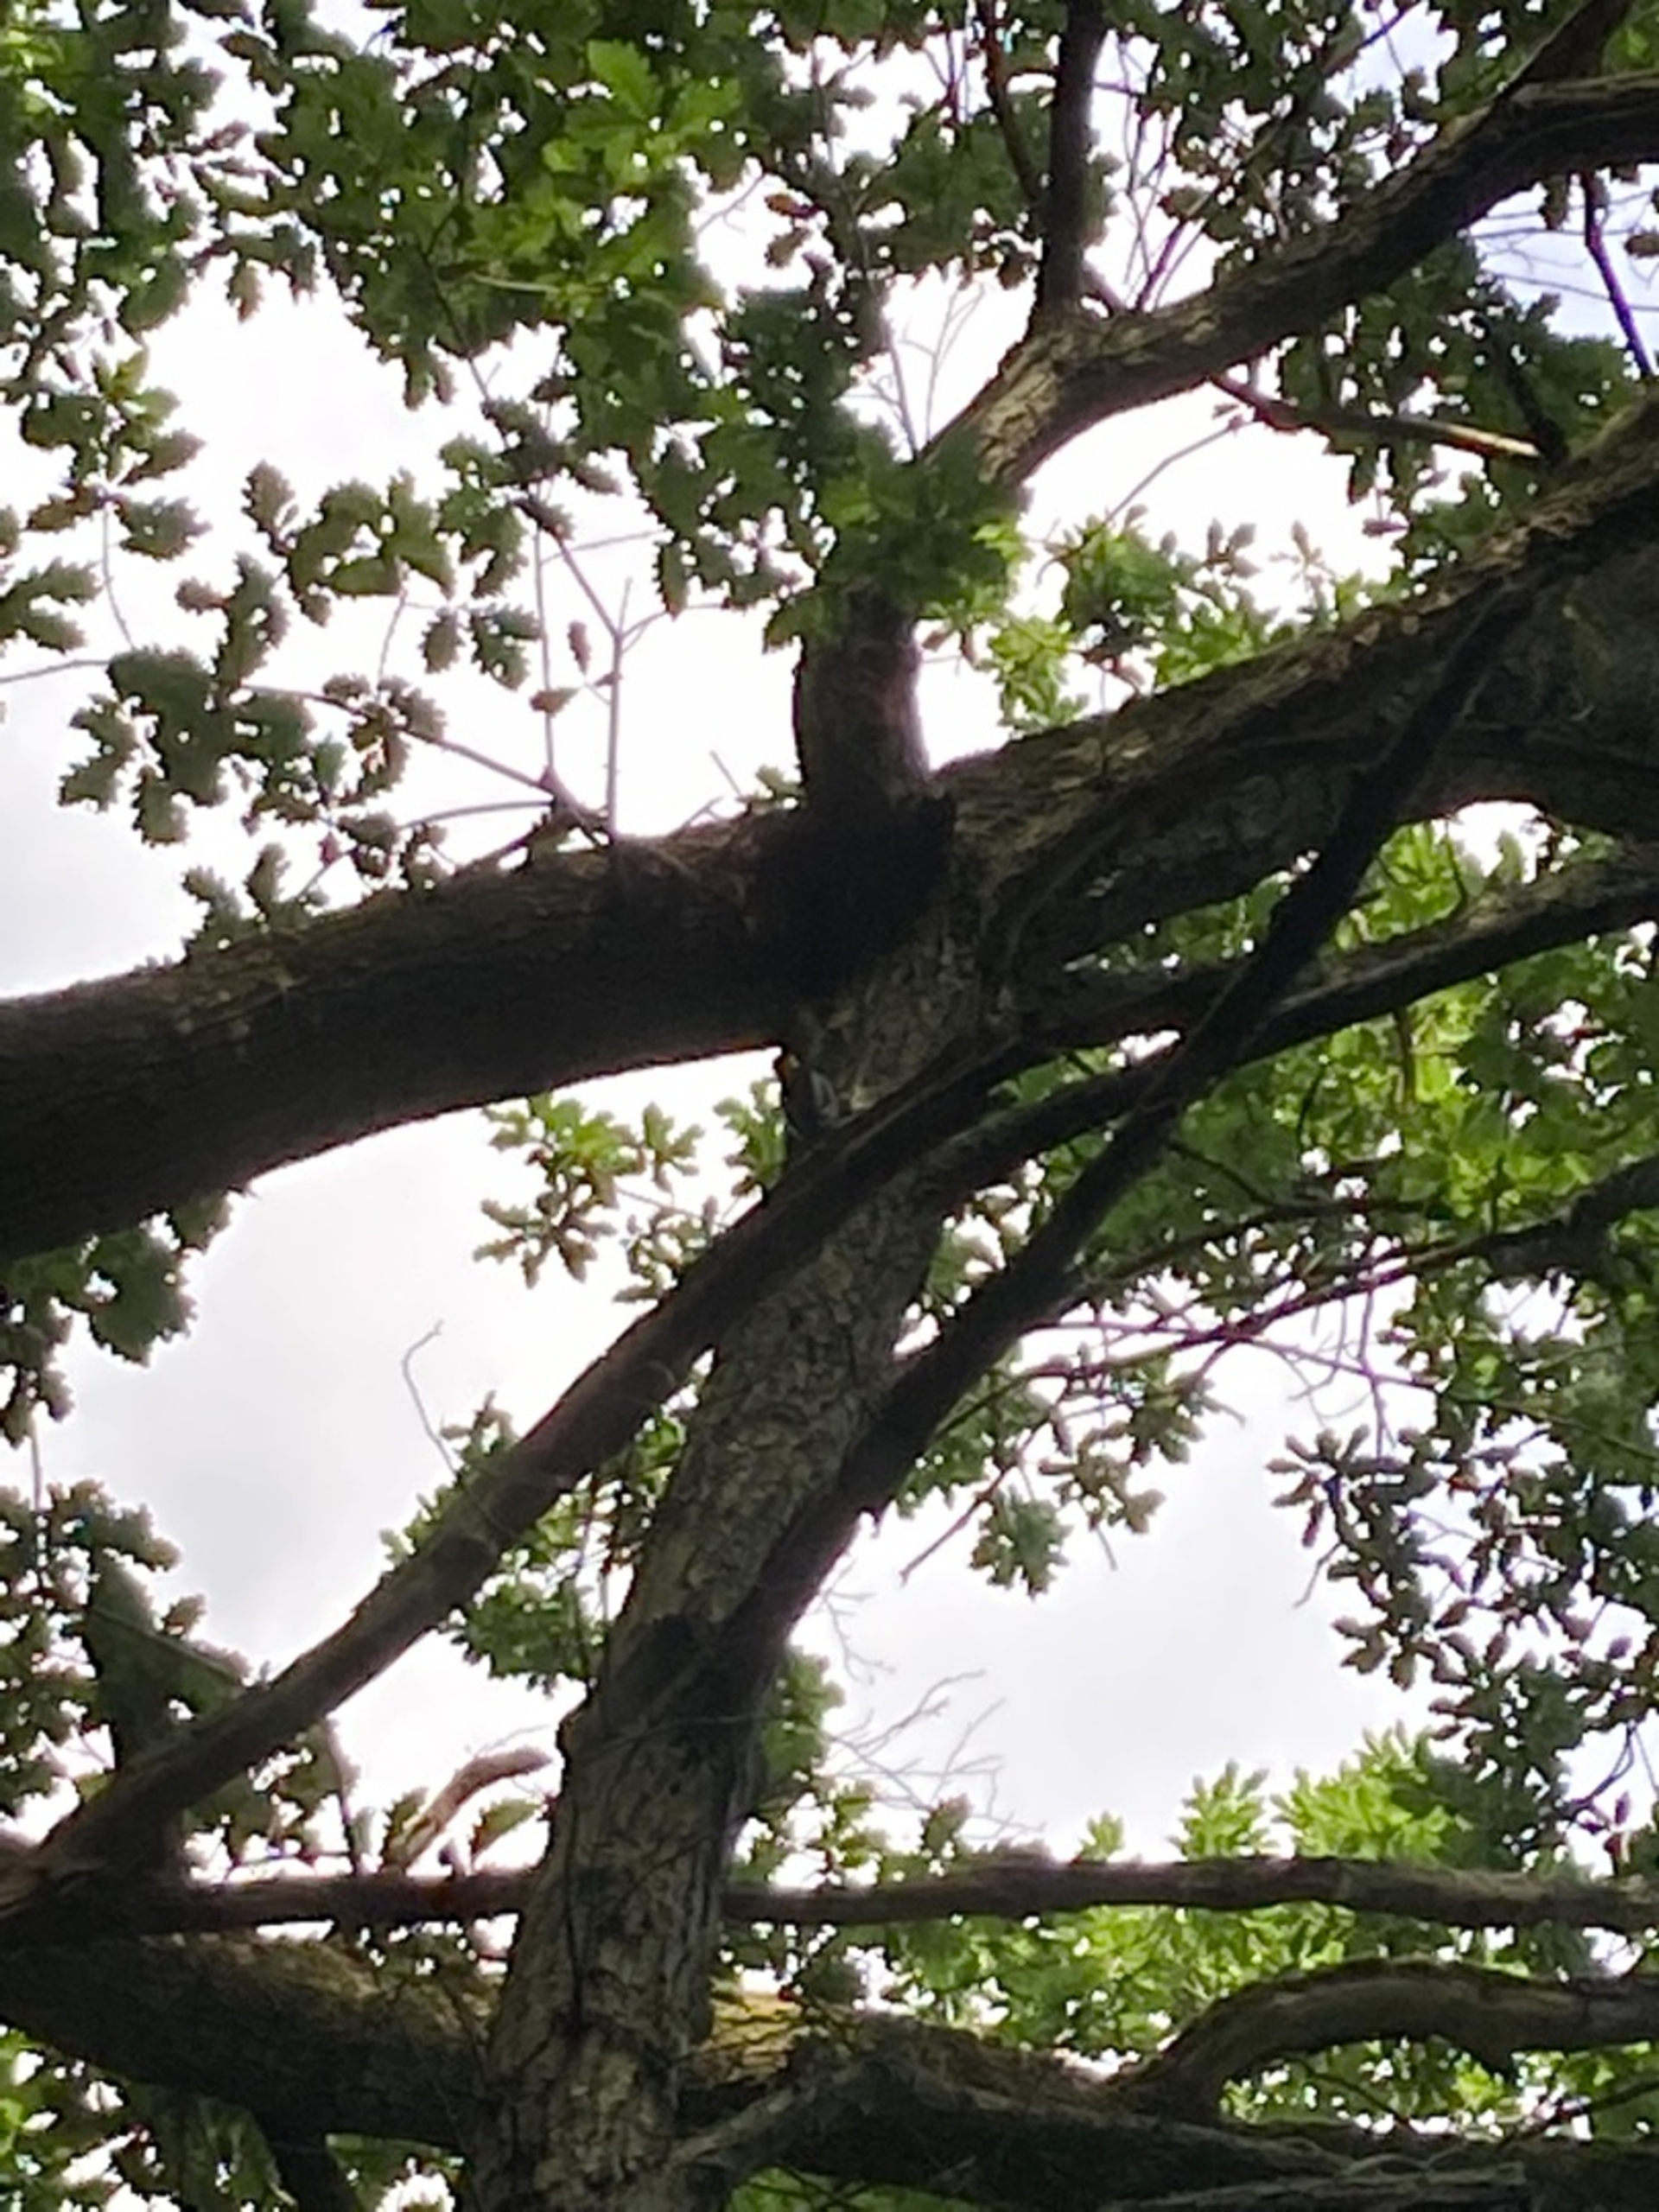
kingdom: Animalia
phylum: Chordata
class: Aves
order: Piciformes
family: Picidae
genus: Dendrocopos
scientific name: Dendrocopos major
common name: Stor flagspætte
